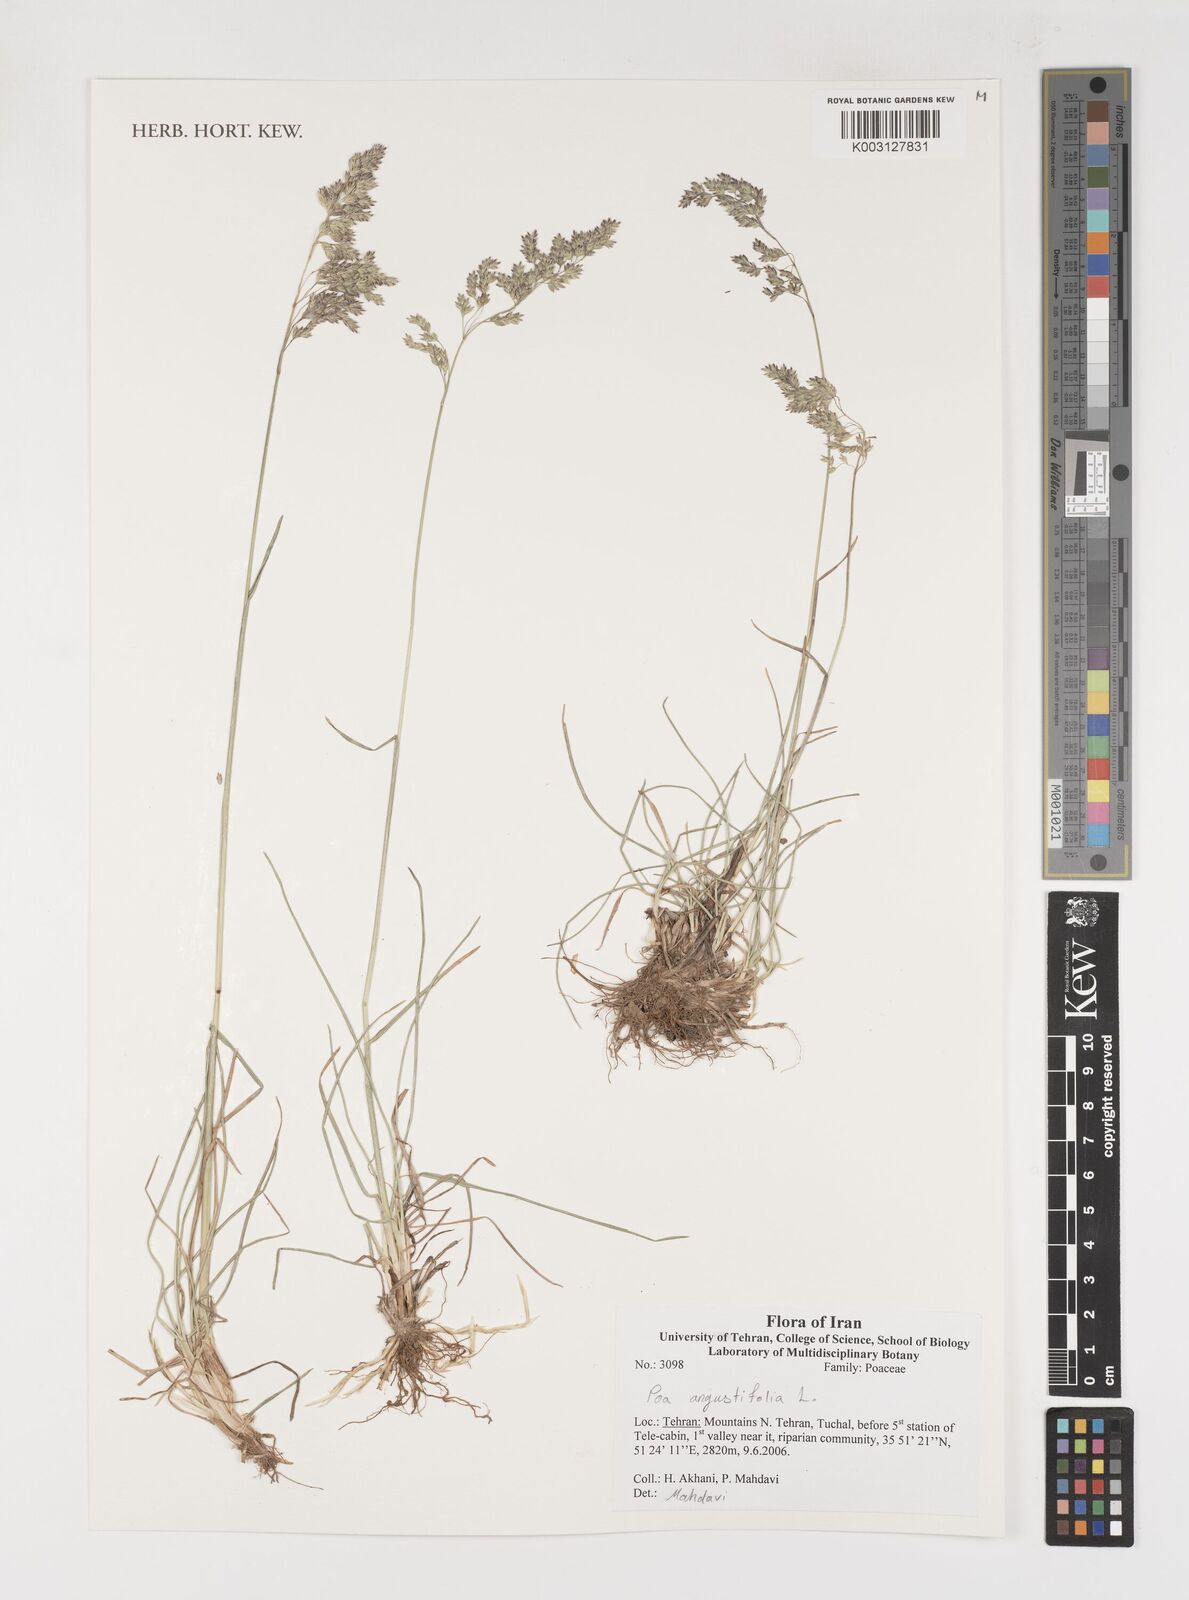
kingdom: Plantae
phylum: Tracheophyta
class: Liliopsida
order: Poales
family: Poaceae
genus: Poa
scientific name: Poa angustifolia
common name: Narrow-leaved meadow-grass
